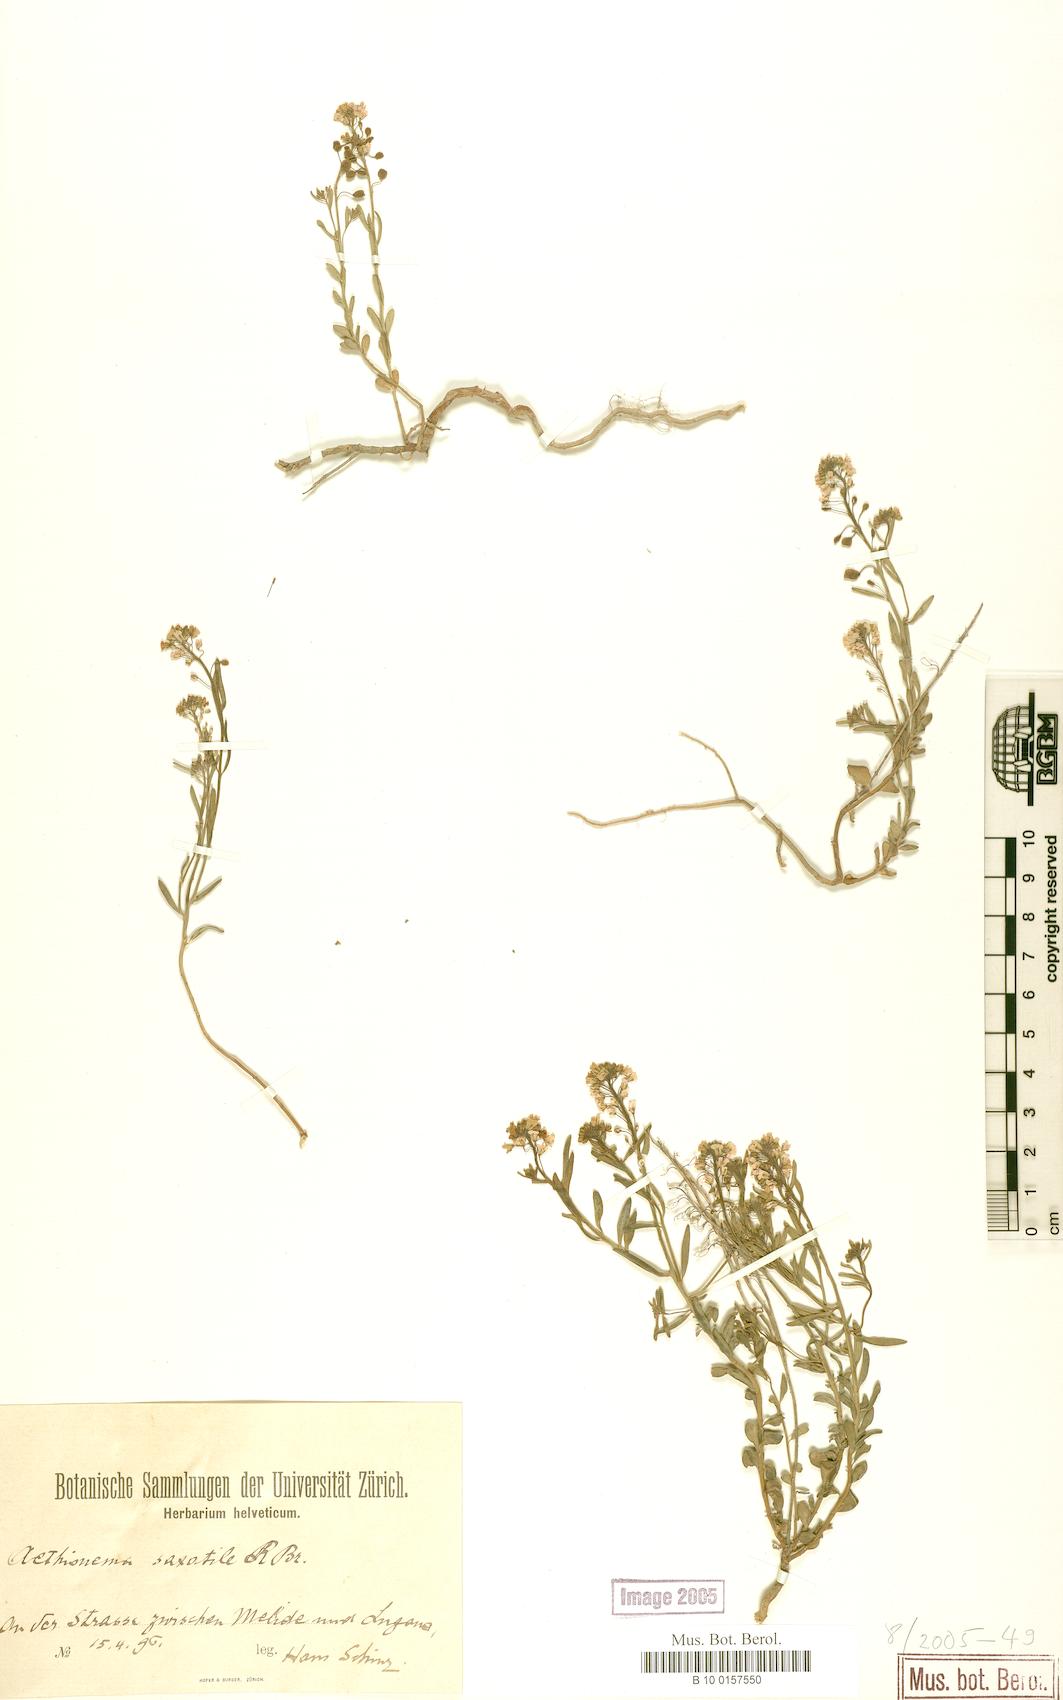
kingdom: Plantae
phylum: Tracheophyta
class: Magnoliopsida
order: Brassicales
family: Brassicaceae
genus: Aethionema
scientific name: Aethionema saxatile
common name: Burnt candytuft
